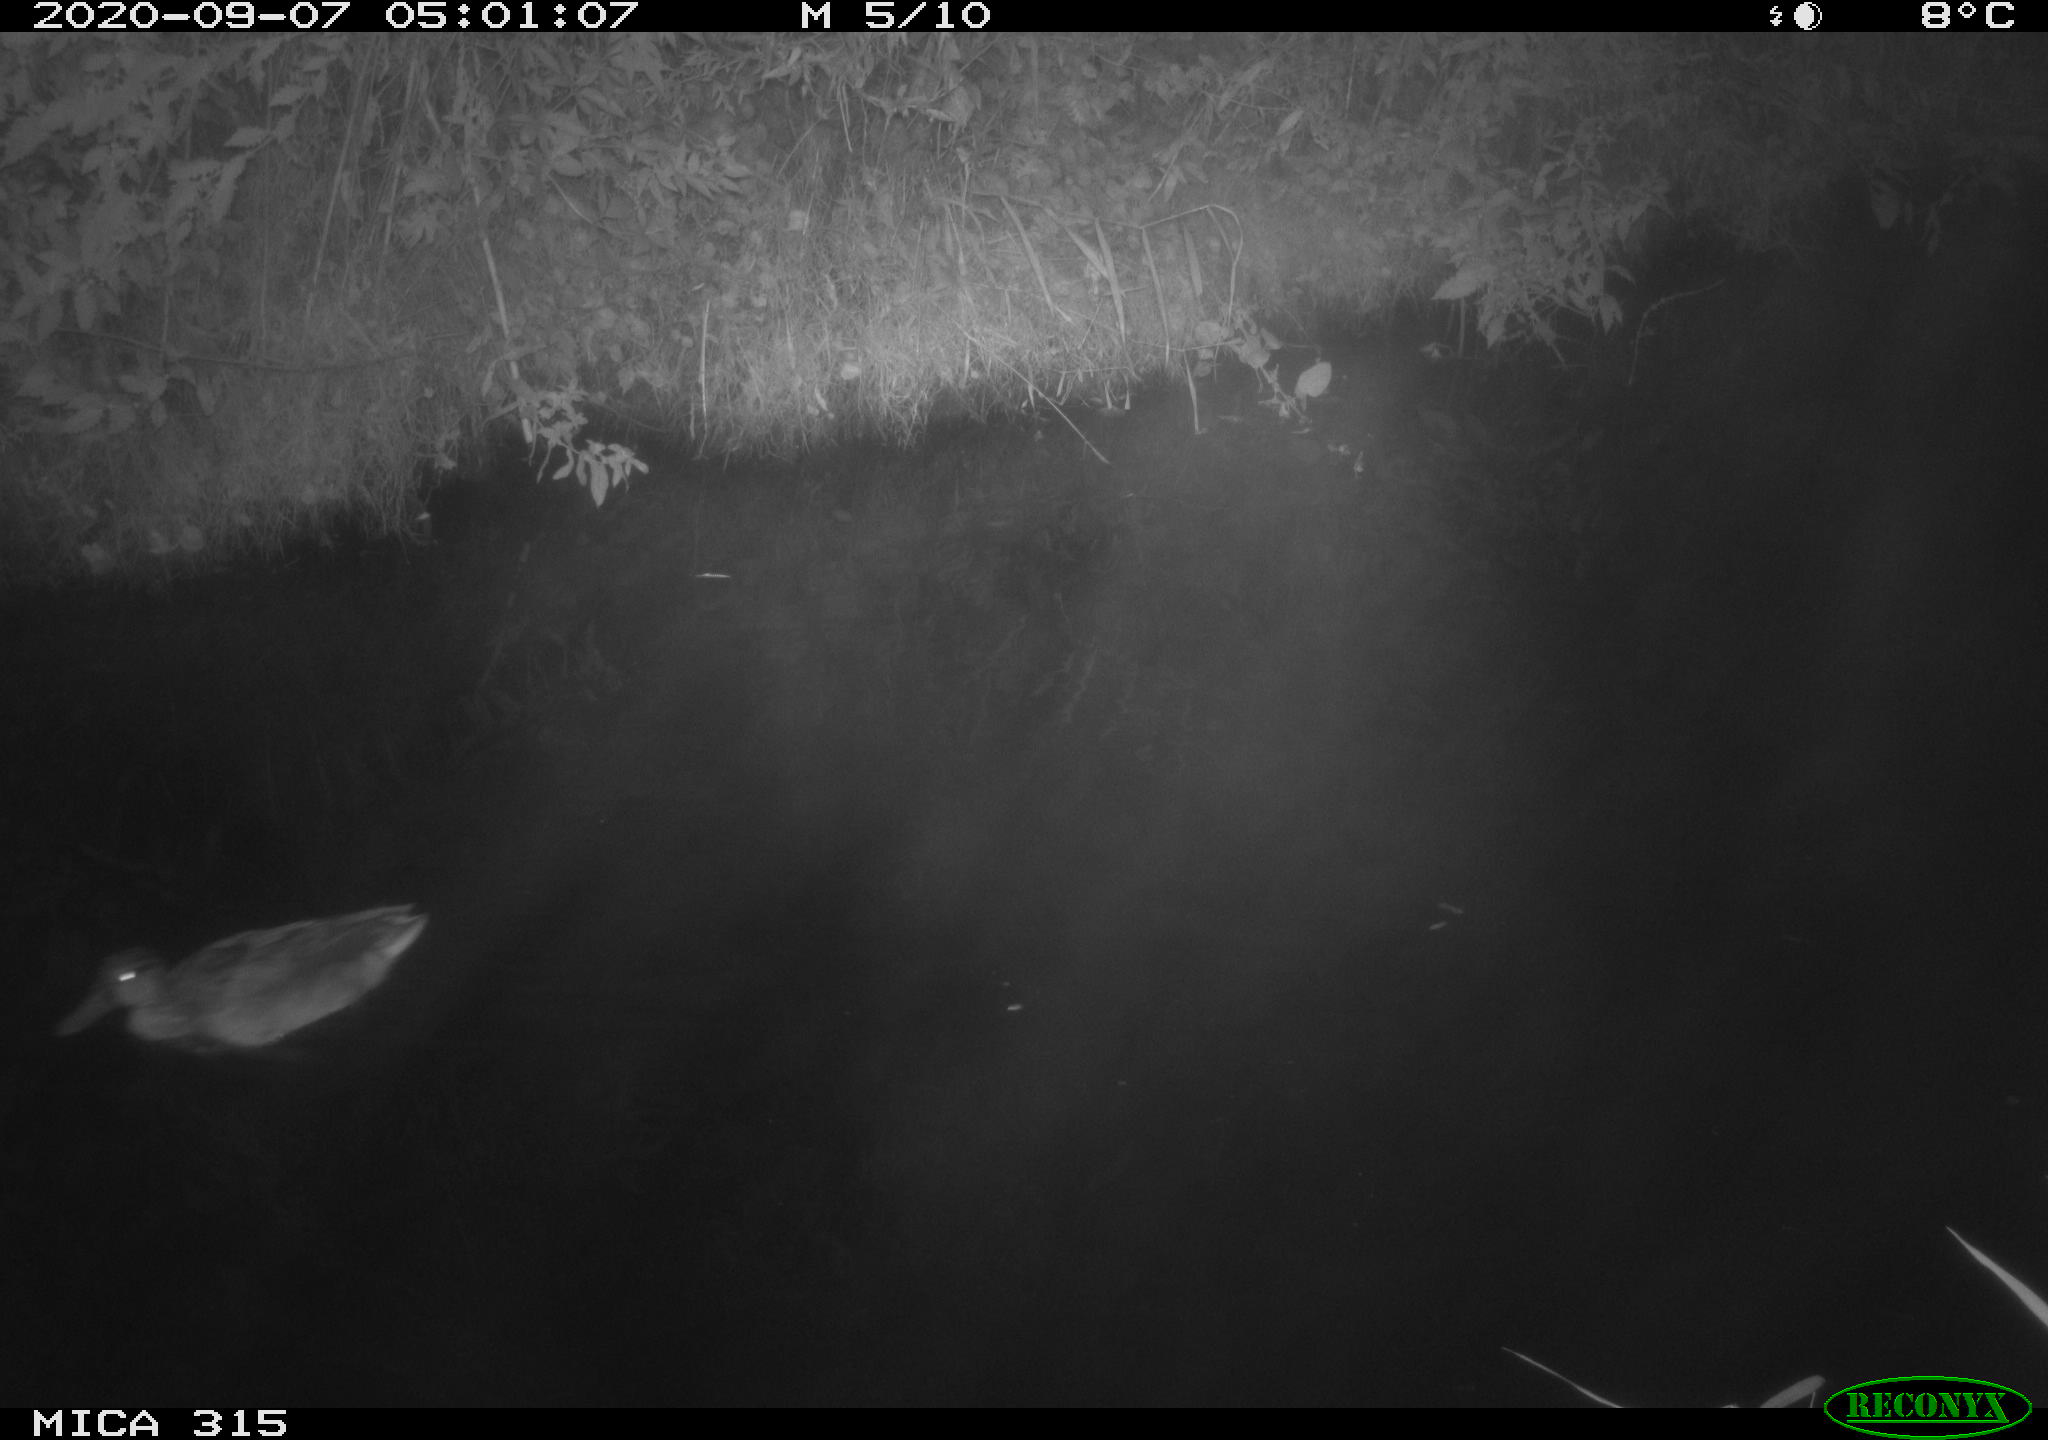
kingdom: Animalia
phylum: Chordata
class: Aves
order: Anseriformes
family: Anatidae
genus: Anas
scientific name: Anas platyrhynchos
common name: Mallard
